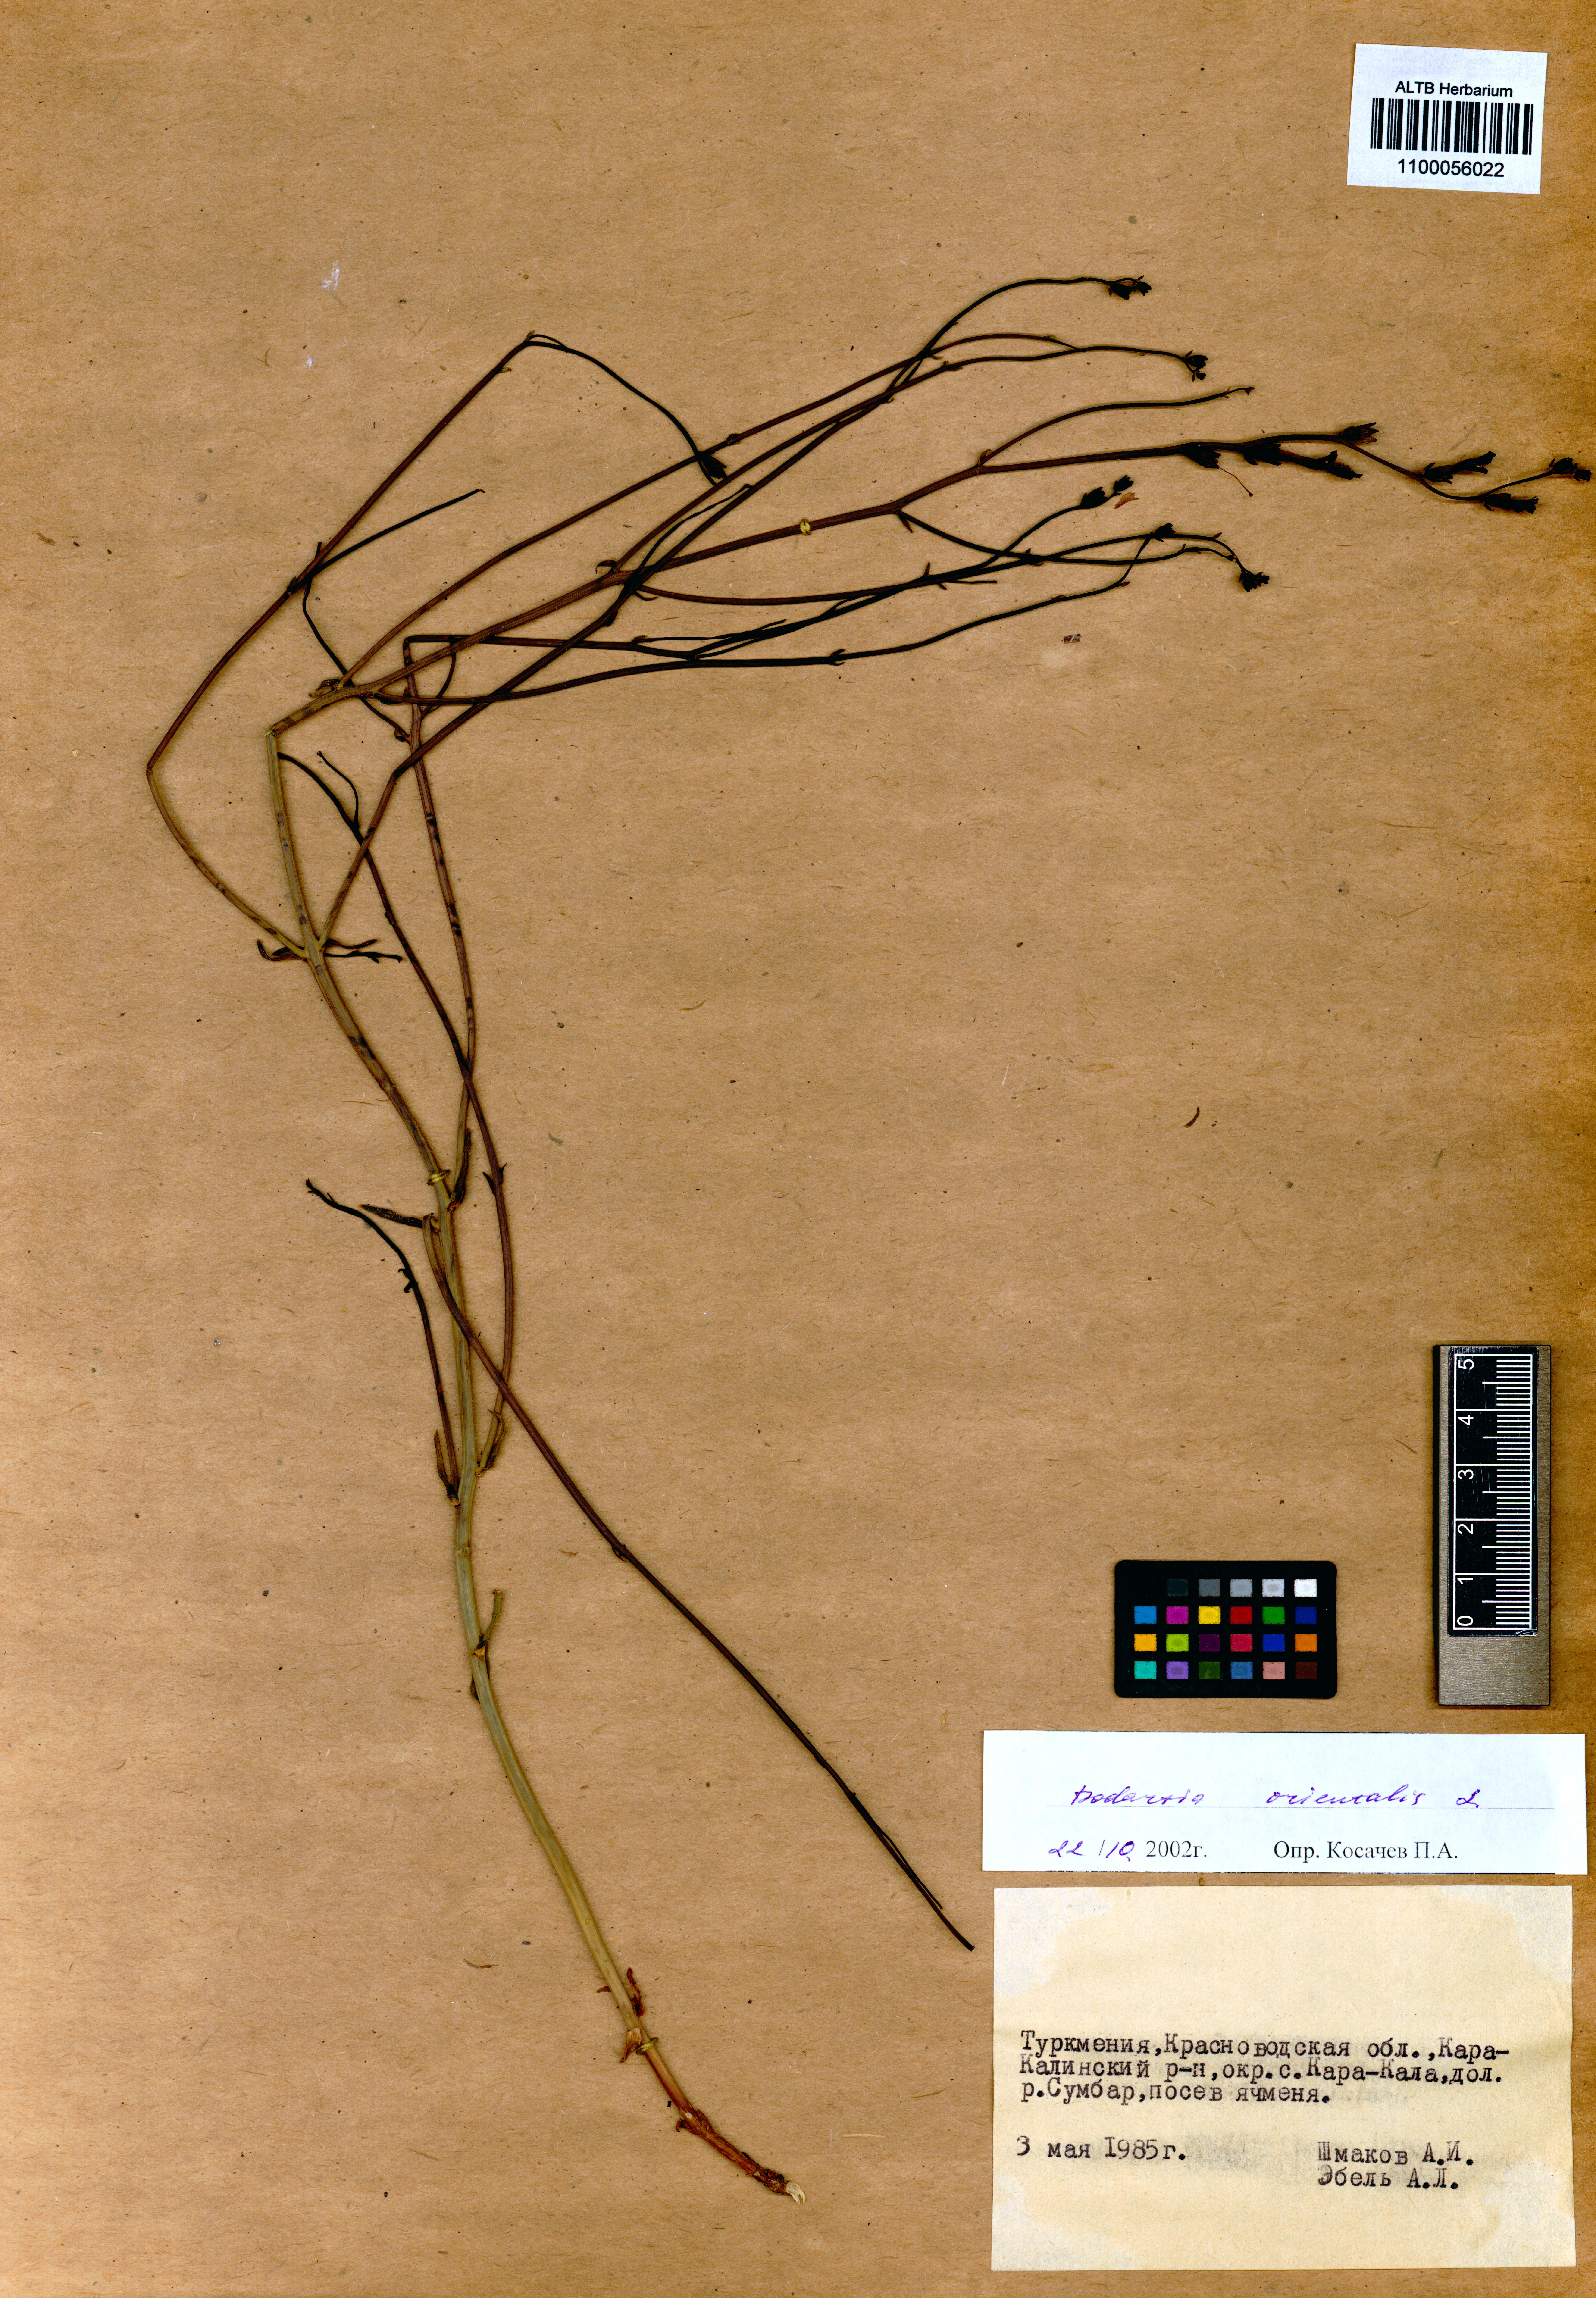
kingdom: Plantae
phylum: Tracheophyta
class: Magnoliopsida
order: Lamiales
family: Mazaceae
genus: Dodartia
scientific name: Dodartia orientalis
